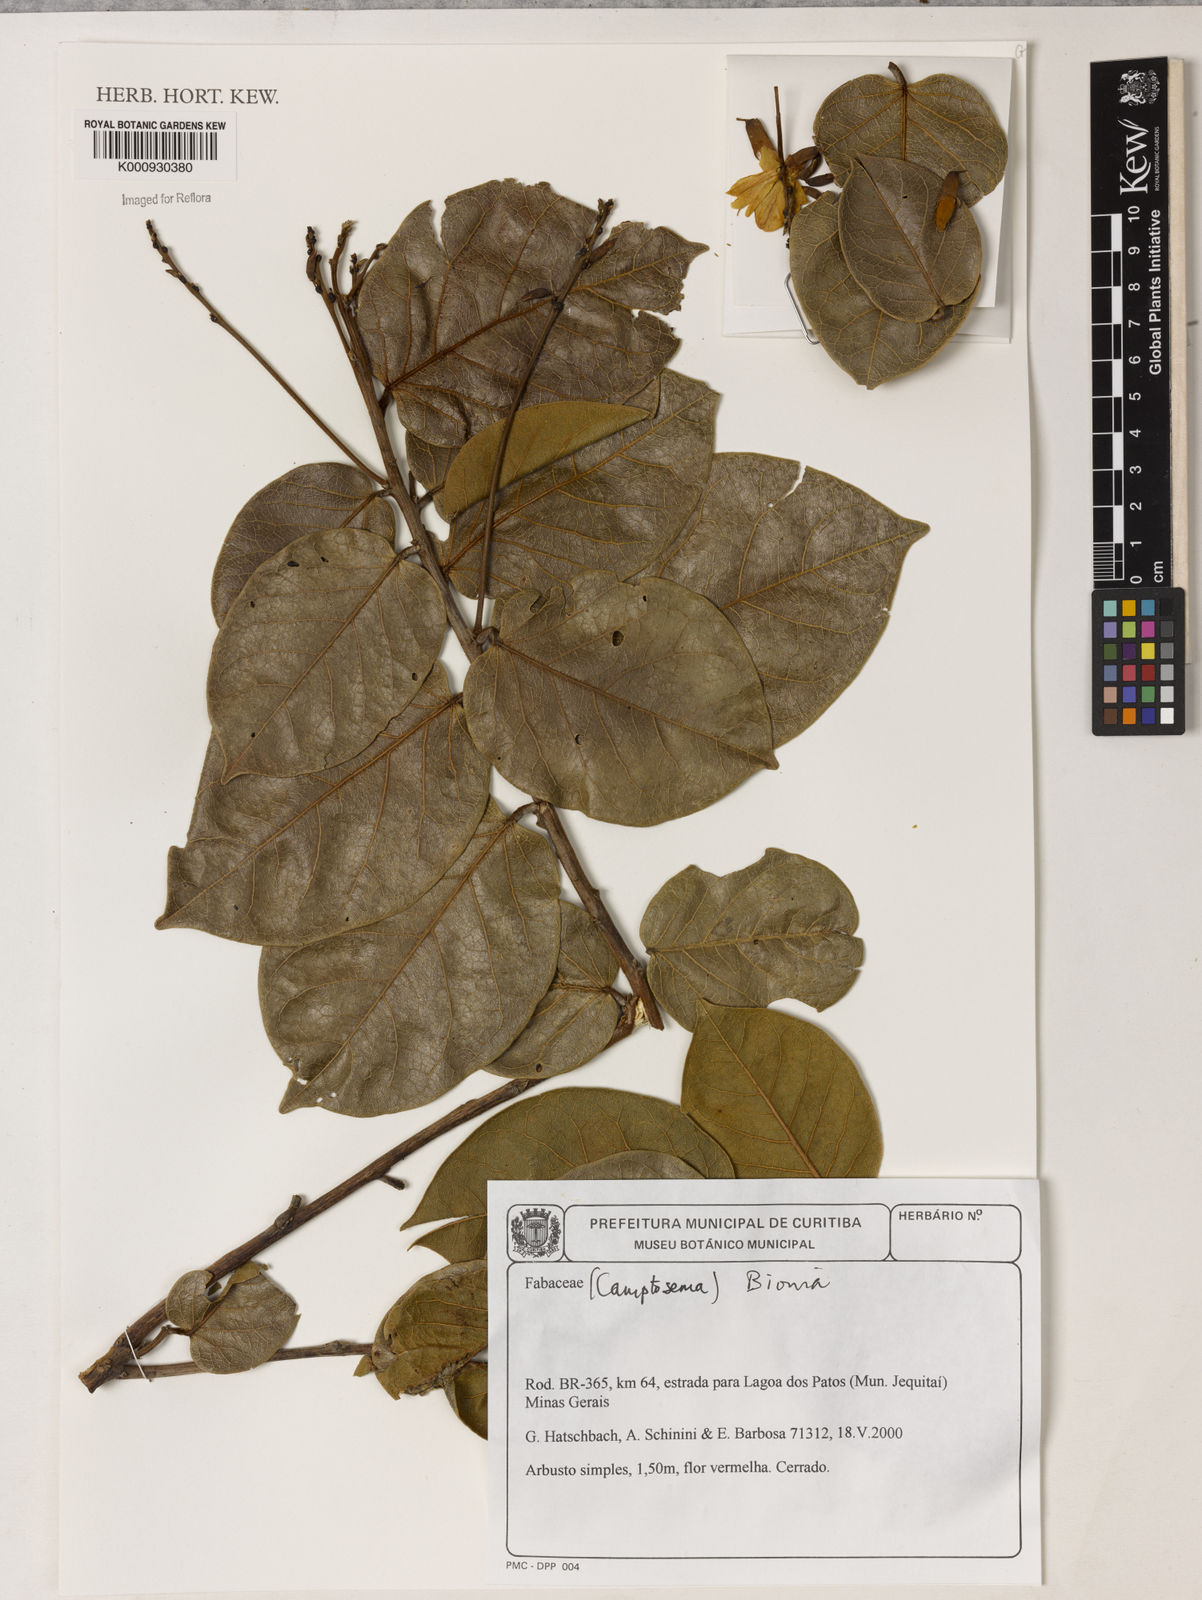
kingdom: Plantae
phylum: Tracheophyta
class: Magnoliopsida
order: Fabales
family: Fabaceae
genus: Camptosema
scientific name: Camptosema
